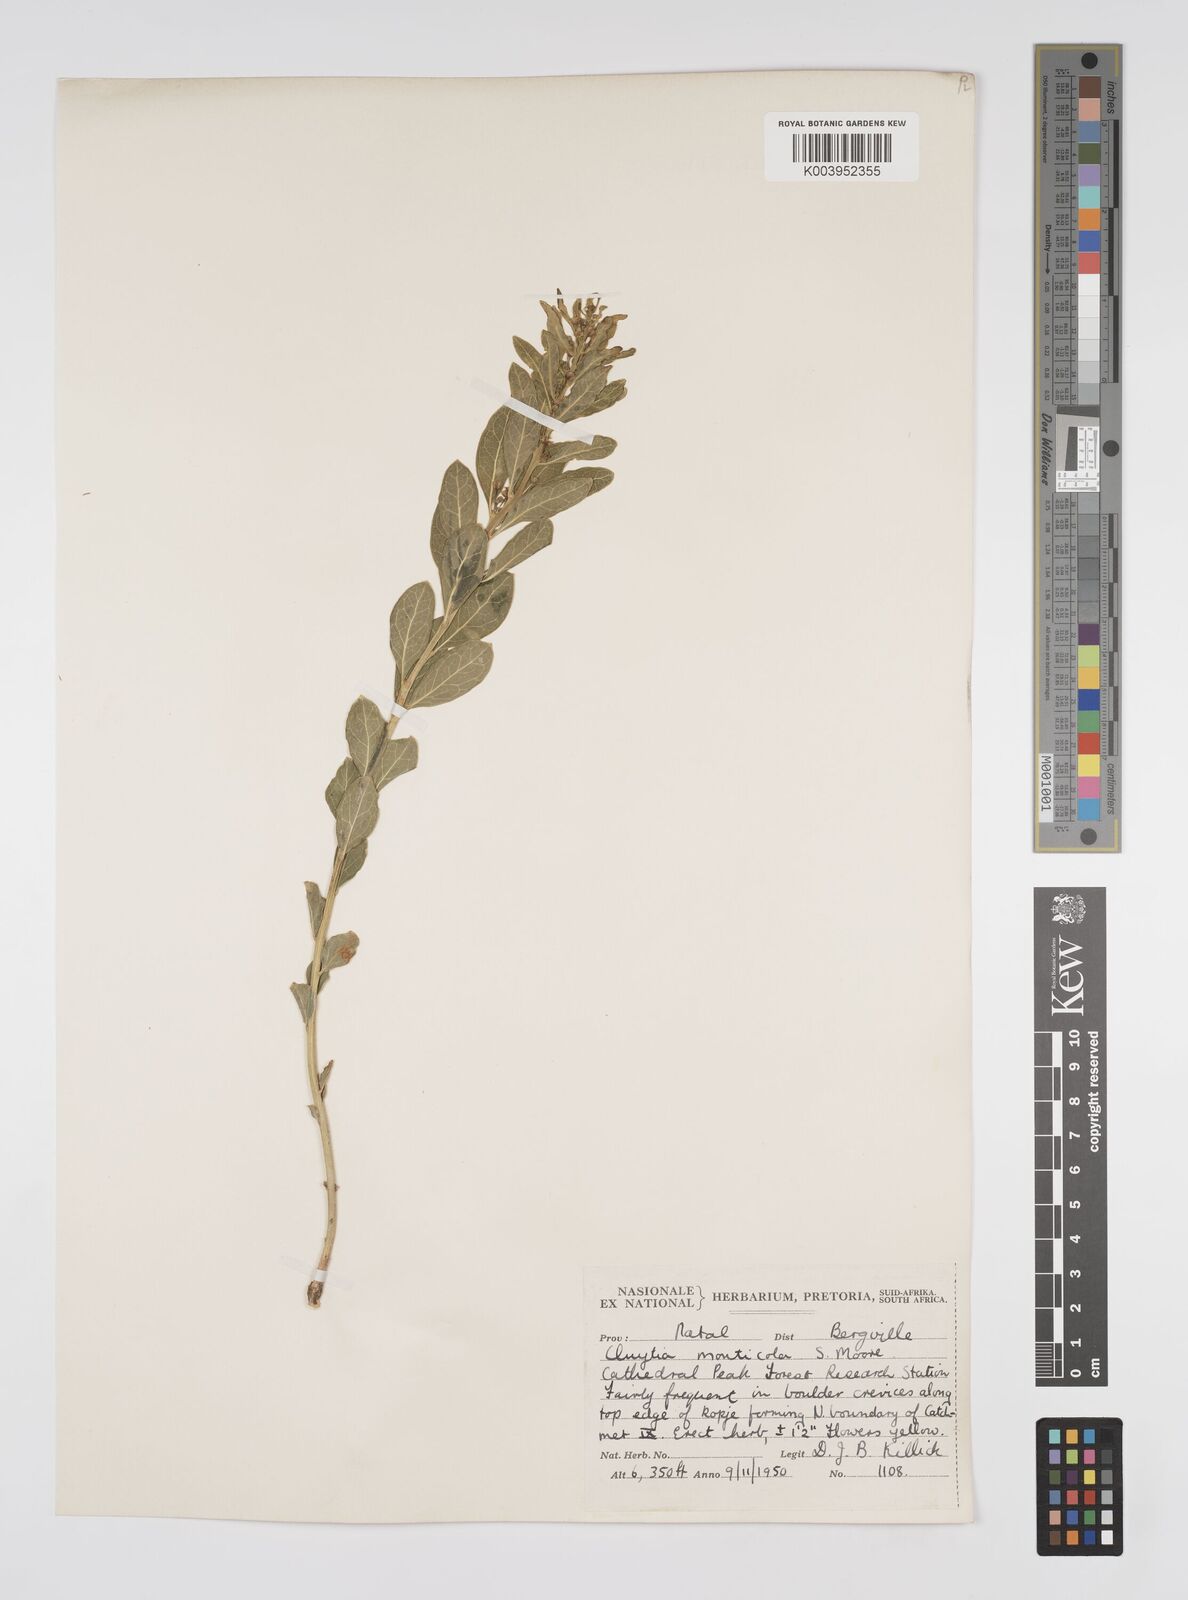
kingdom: Plantae
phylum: Tracheophyta
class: Magnoliopsida
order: Malpighiales
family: Peraceae
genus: Clutia
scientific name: Clutia monticola
